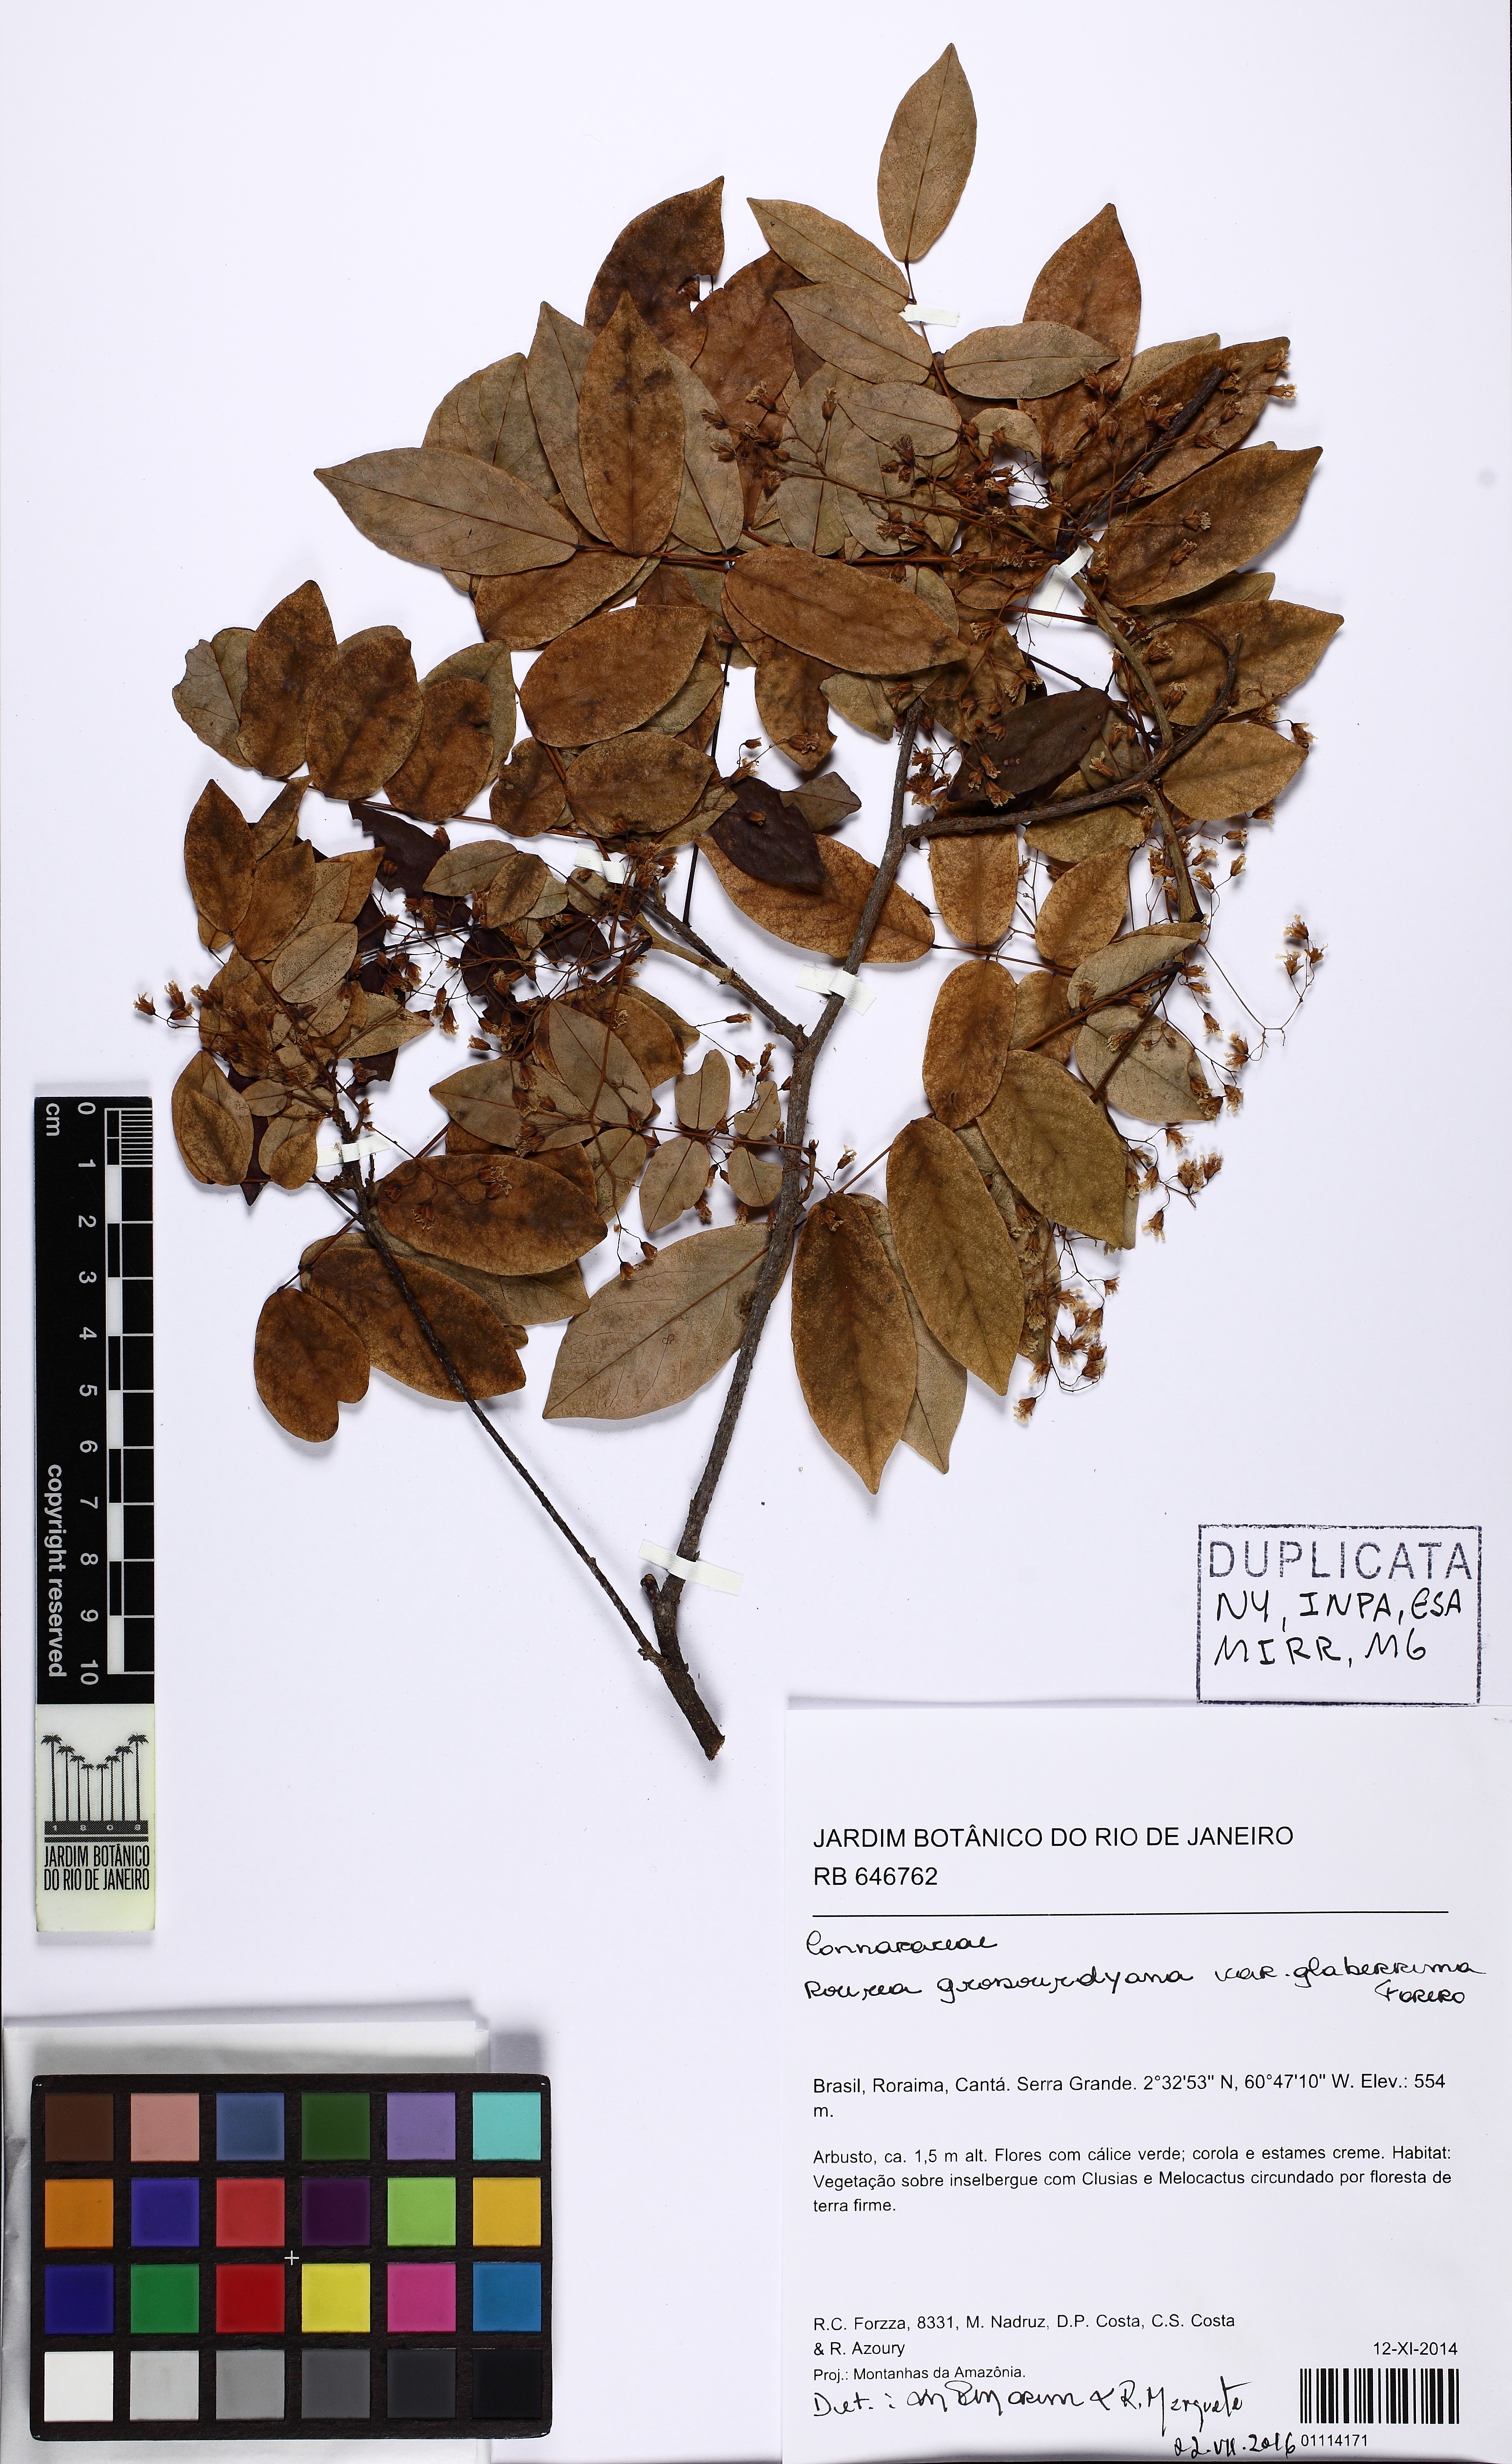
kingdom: Plantae
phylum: Tracheophyta
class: Magnoliopsida
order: Oxalidales
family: Connaraceae
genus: Rourea
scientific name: Rourea grosourdyana
